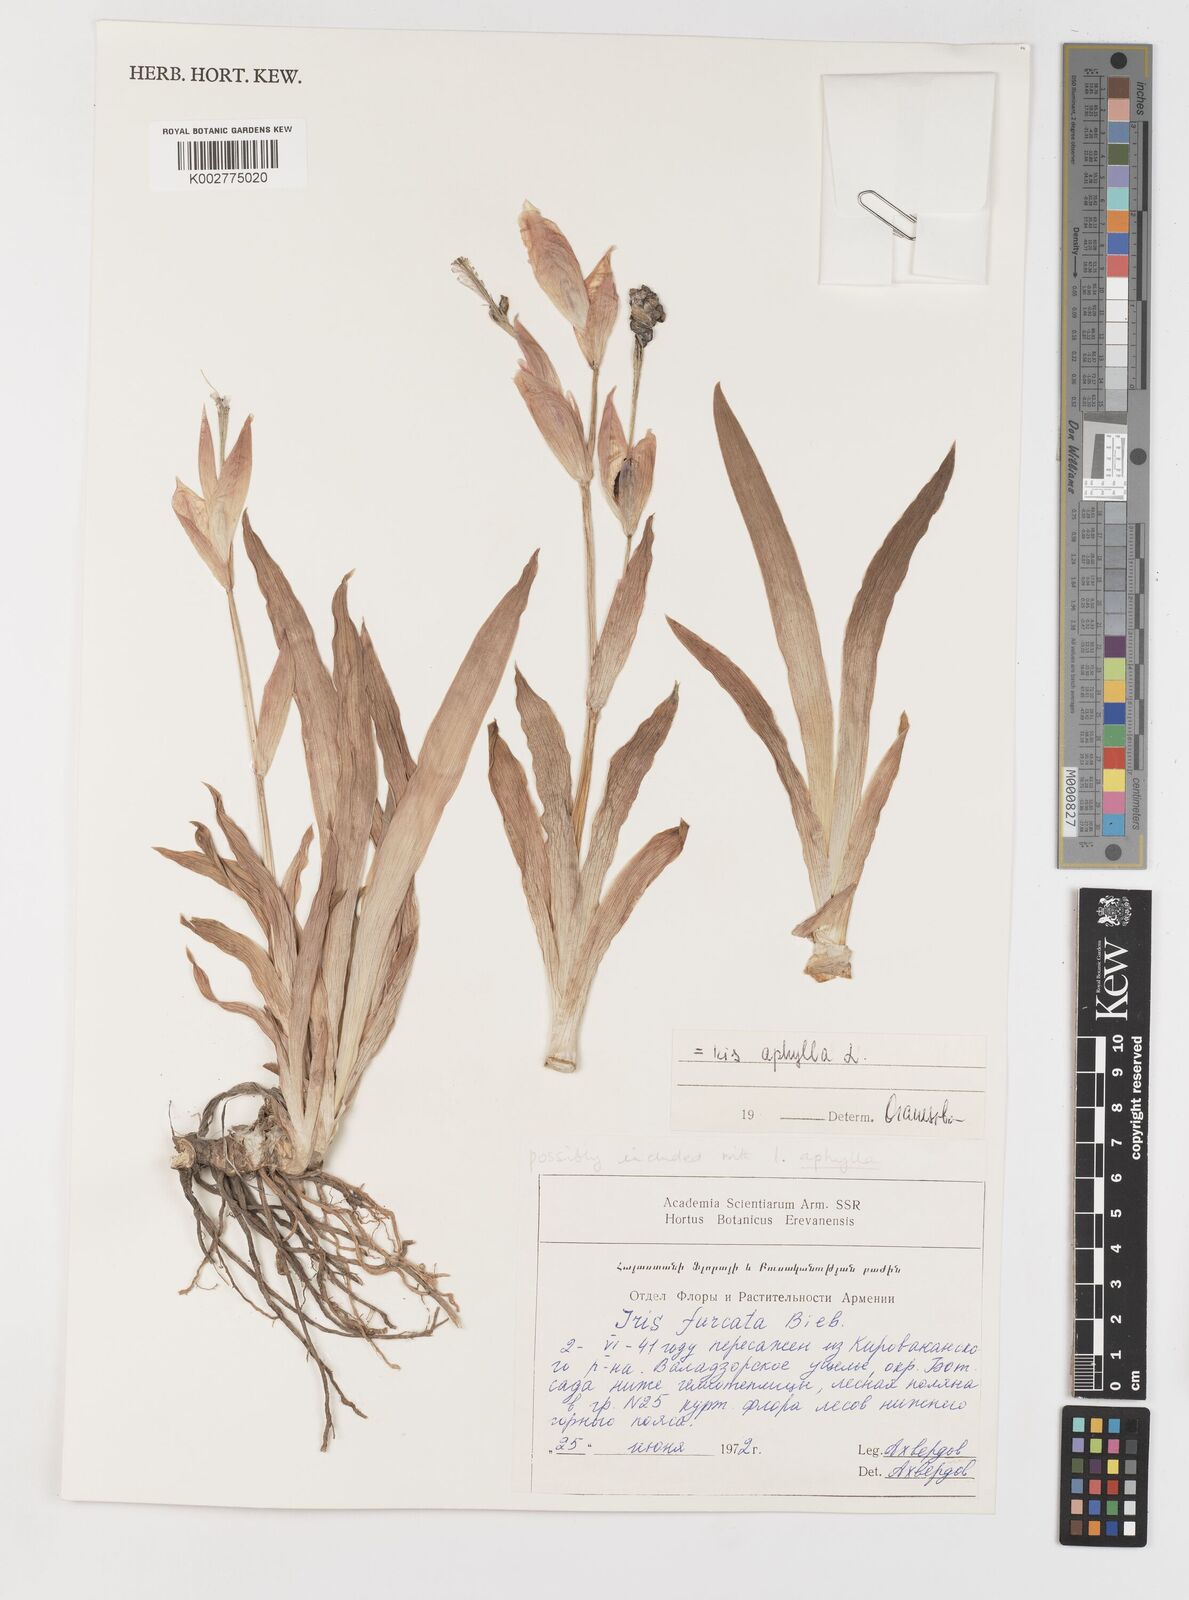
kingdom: Plantae
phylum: Tracheophyta
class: Liliopsida
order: Asparagales
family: Iridaceae
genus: Iris
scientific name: Iris aphylla
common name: Stool iris
